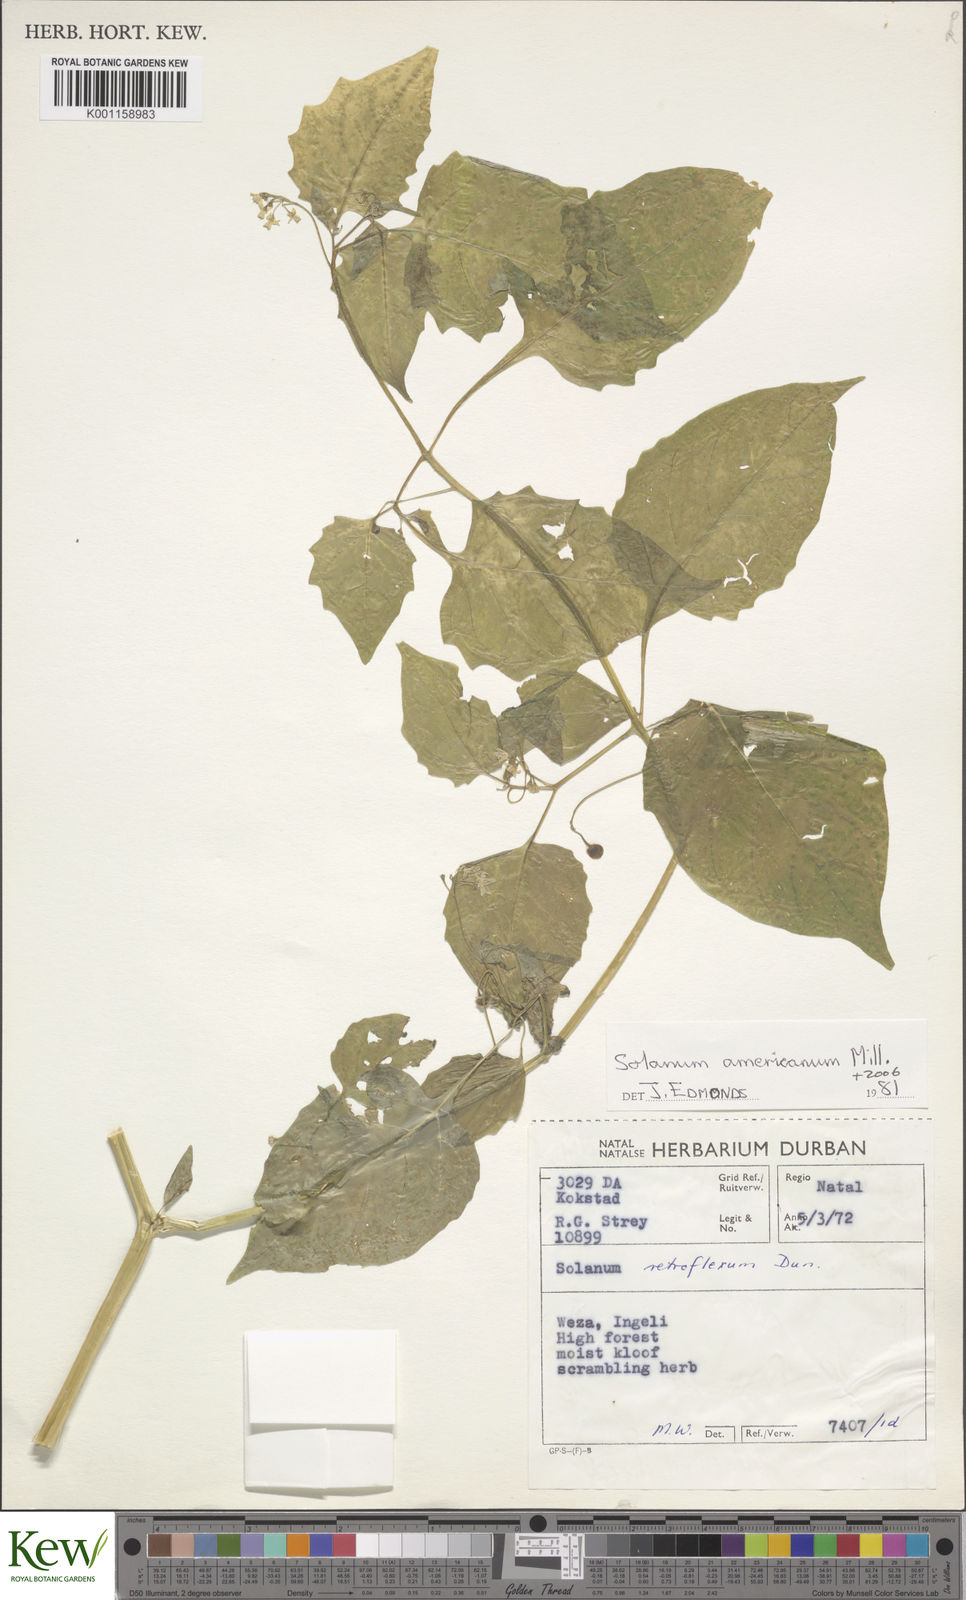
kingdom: Plantae
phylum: Tracheophyta
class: Magnoliopsida
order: Solanales
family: Solanaceae
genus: Solanum
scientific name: Solanum tarderemotum
